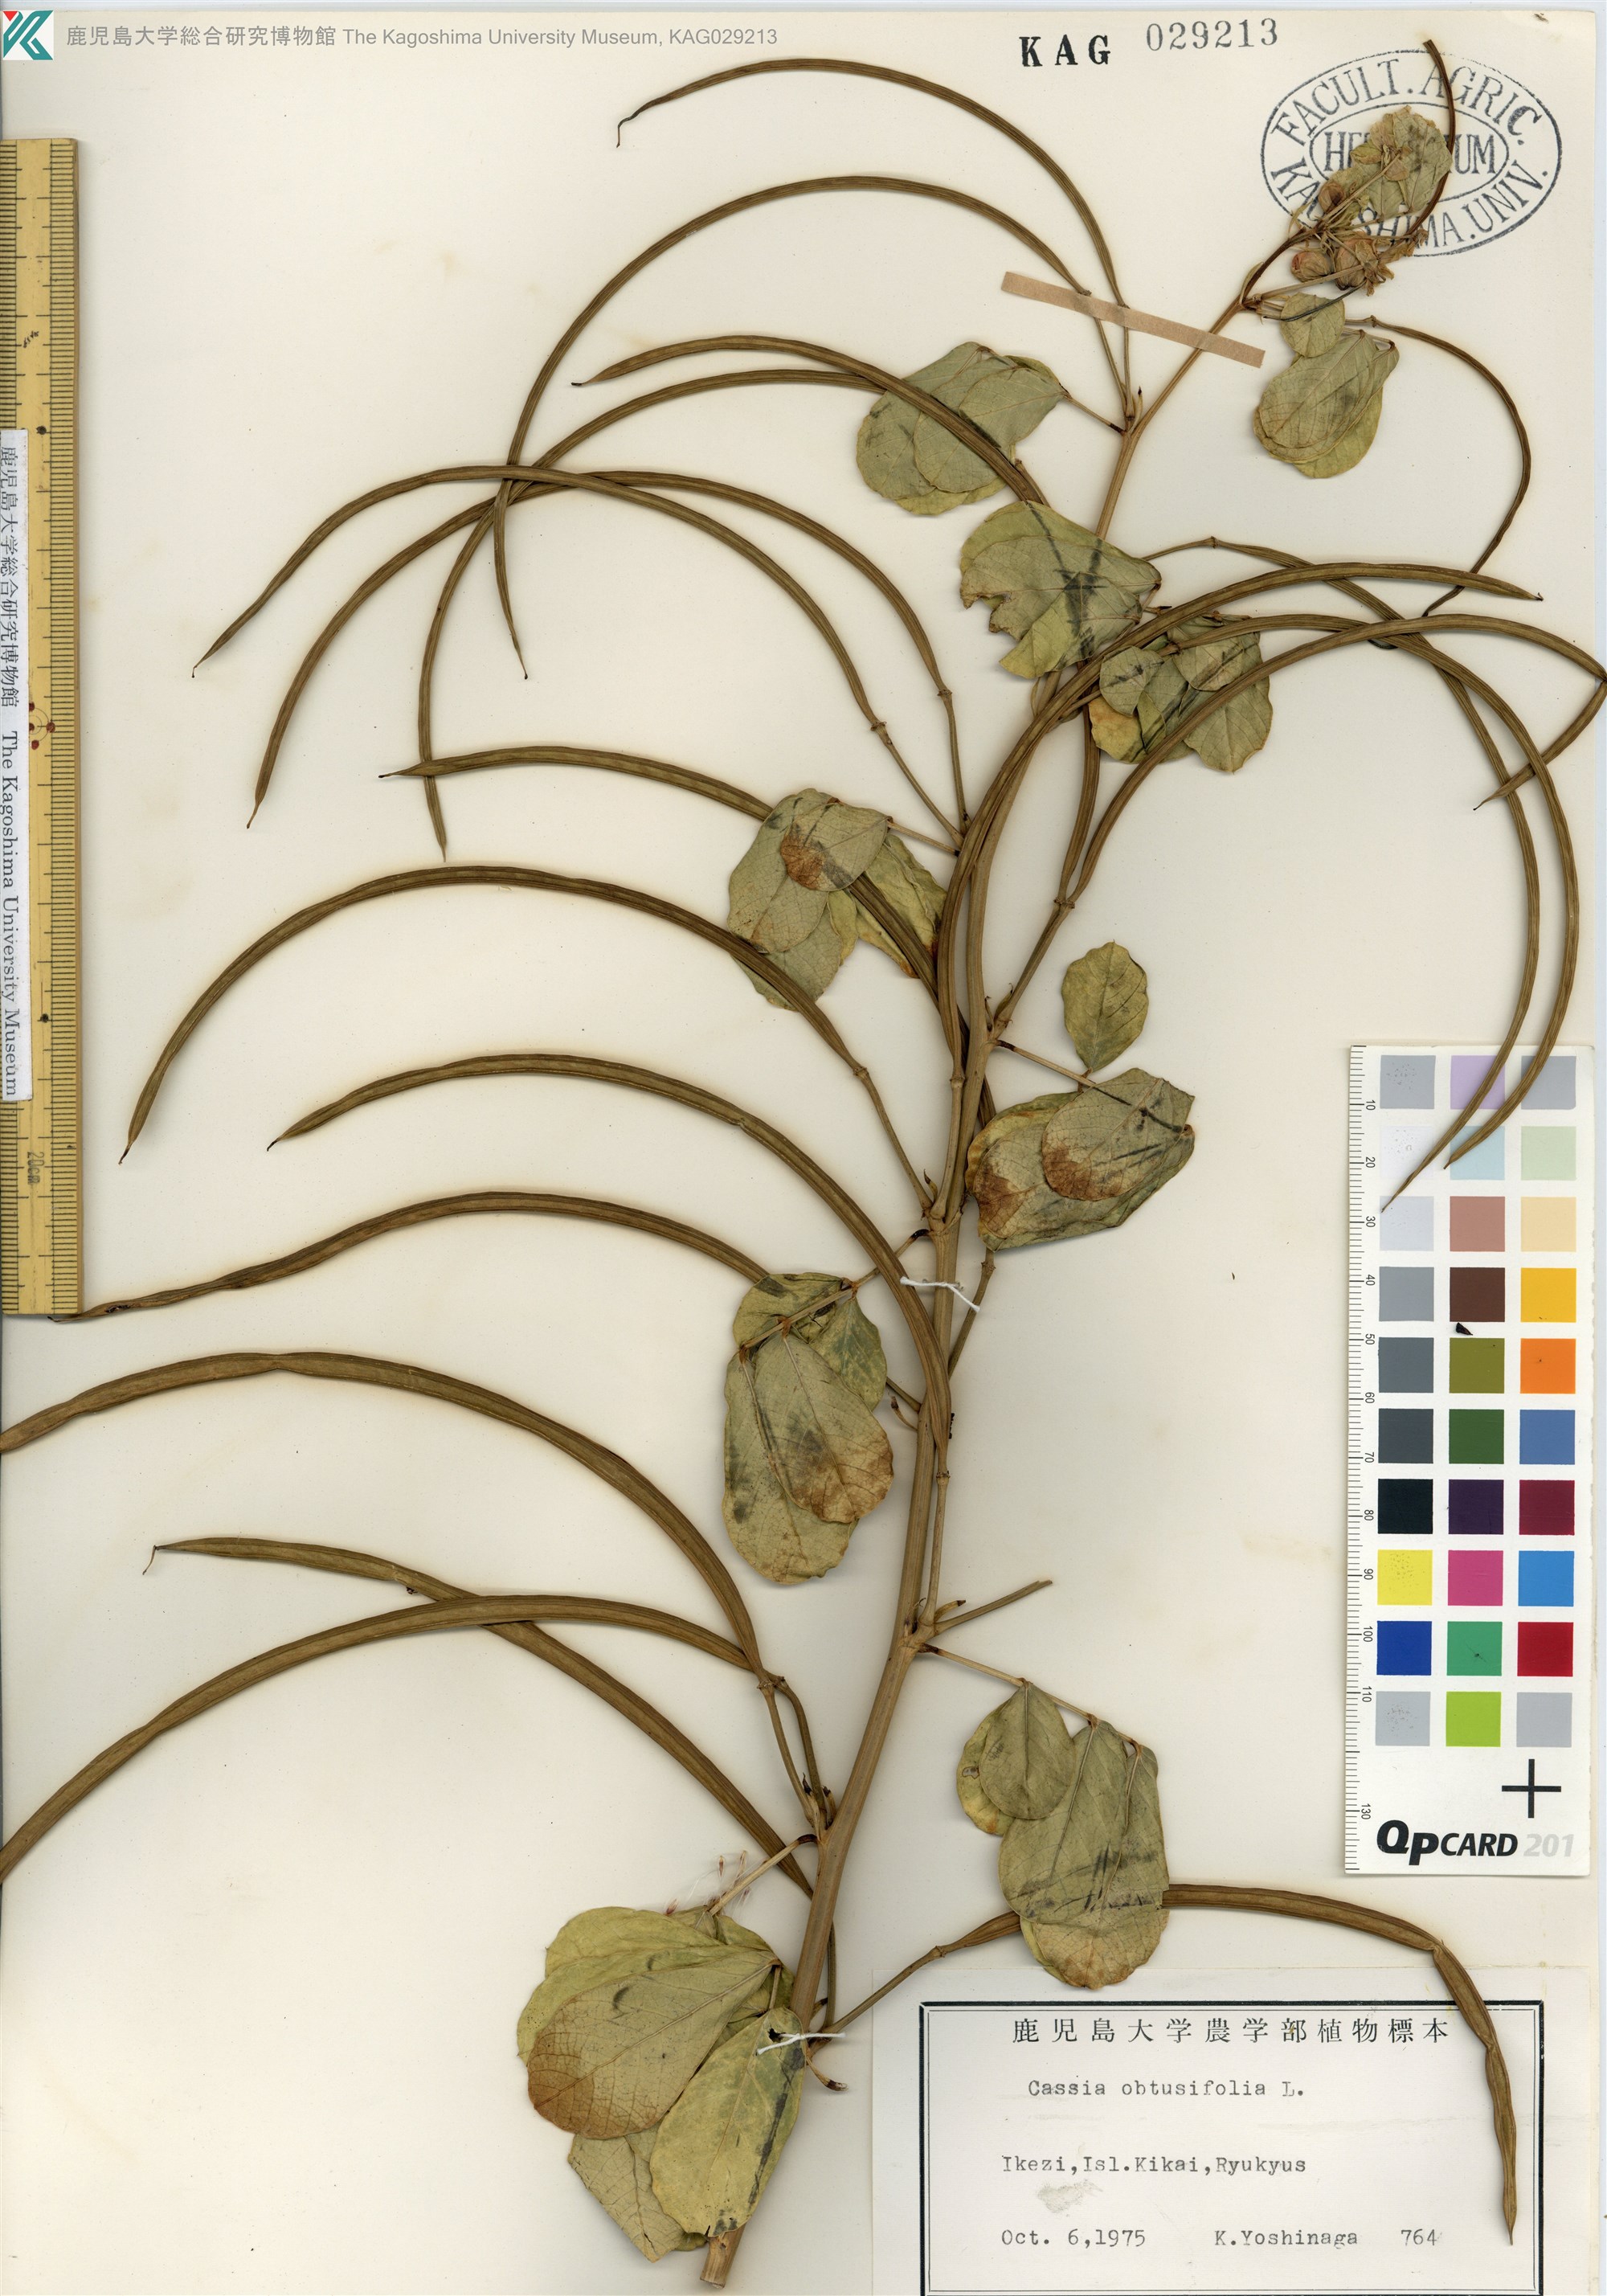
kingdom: Plantae
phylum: Tracheophyta
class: Magnoliopsida
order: Fabales
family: Fabaceae
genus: Senna
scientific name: Senna obtusifolia
